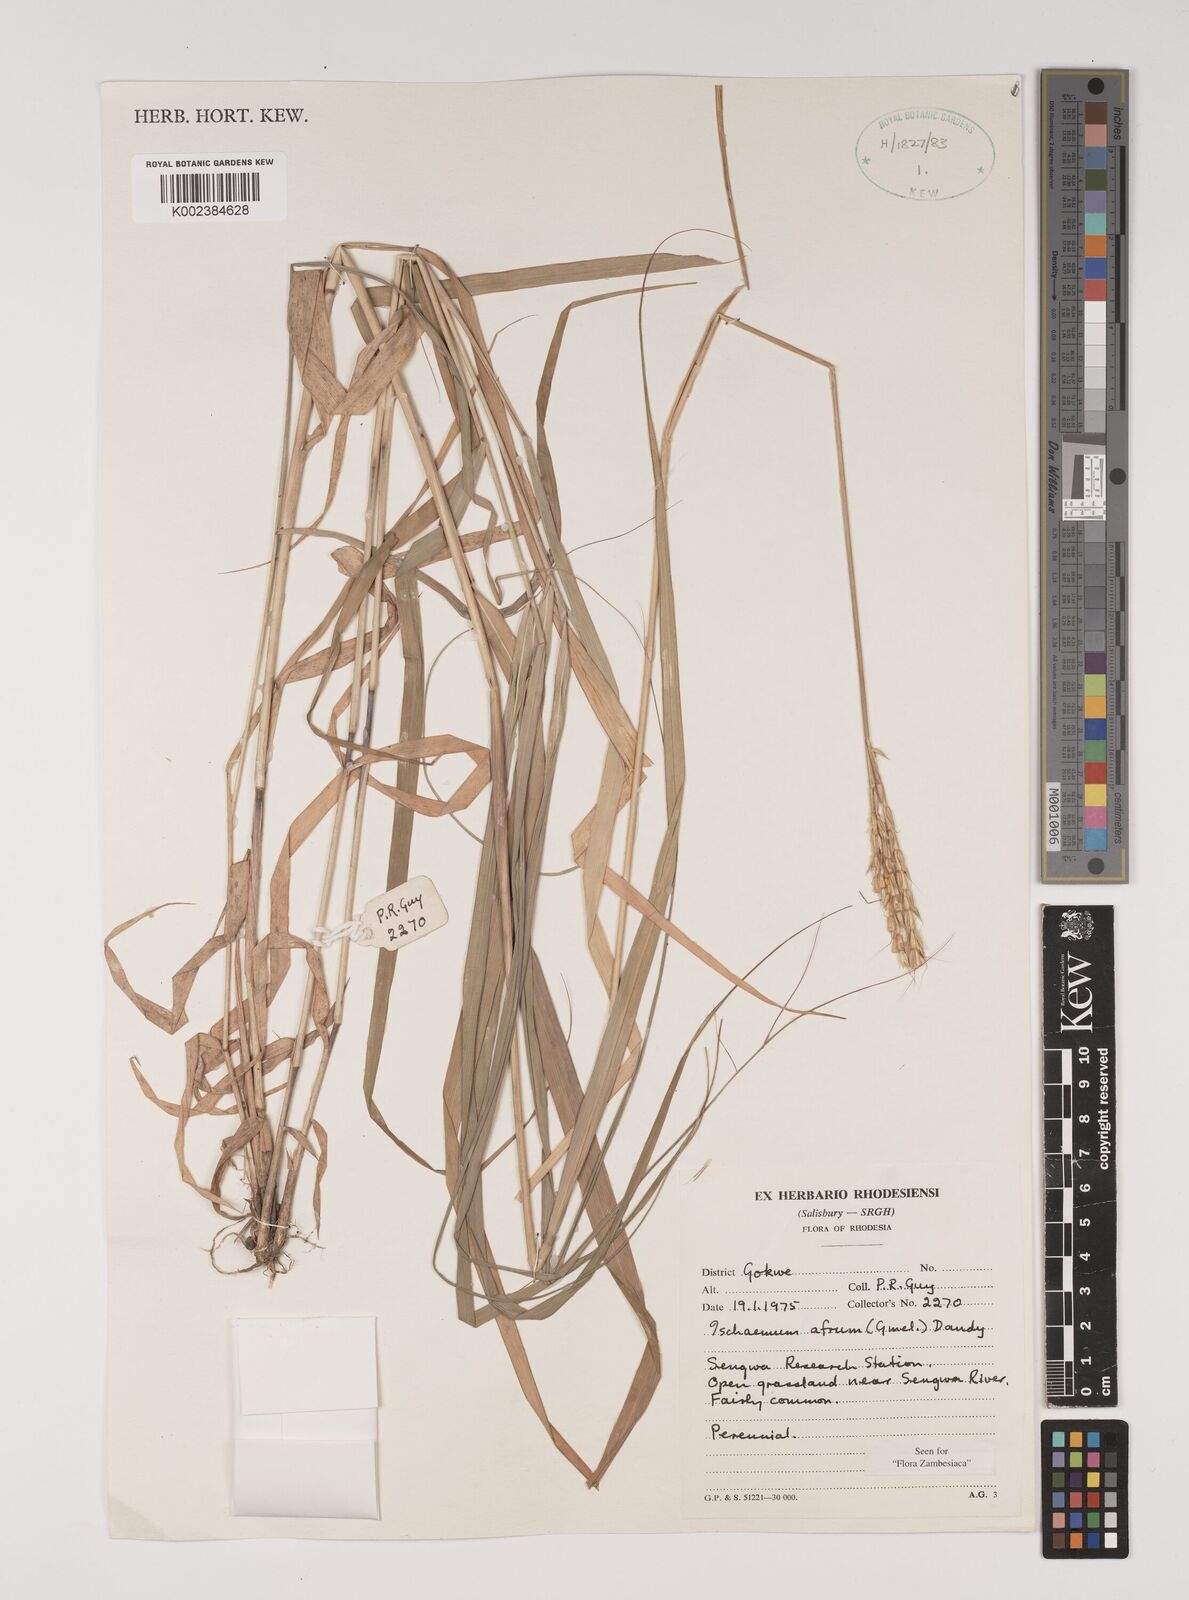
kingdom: Plantae
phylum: Tracheophyta
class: Liliopsida
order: Poales
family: Poaceae
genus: Ischaemum
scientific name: Ischaemum afrum
